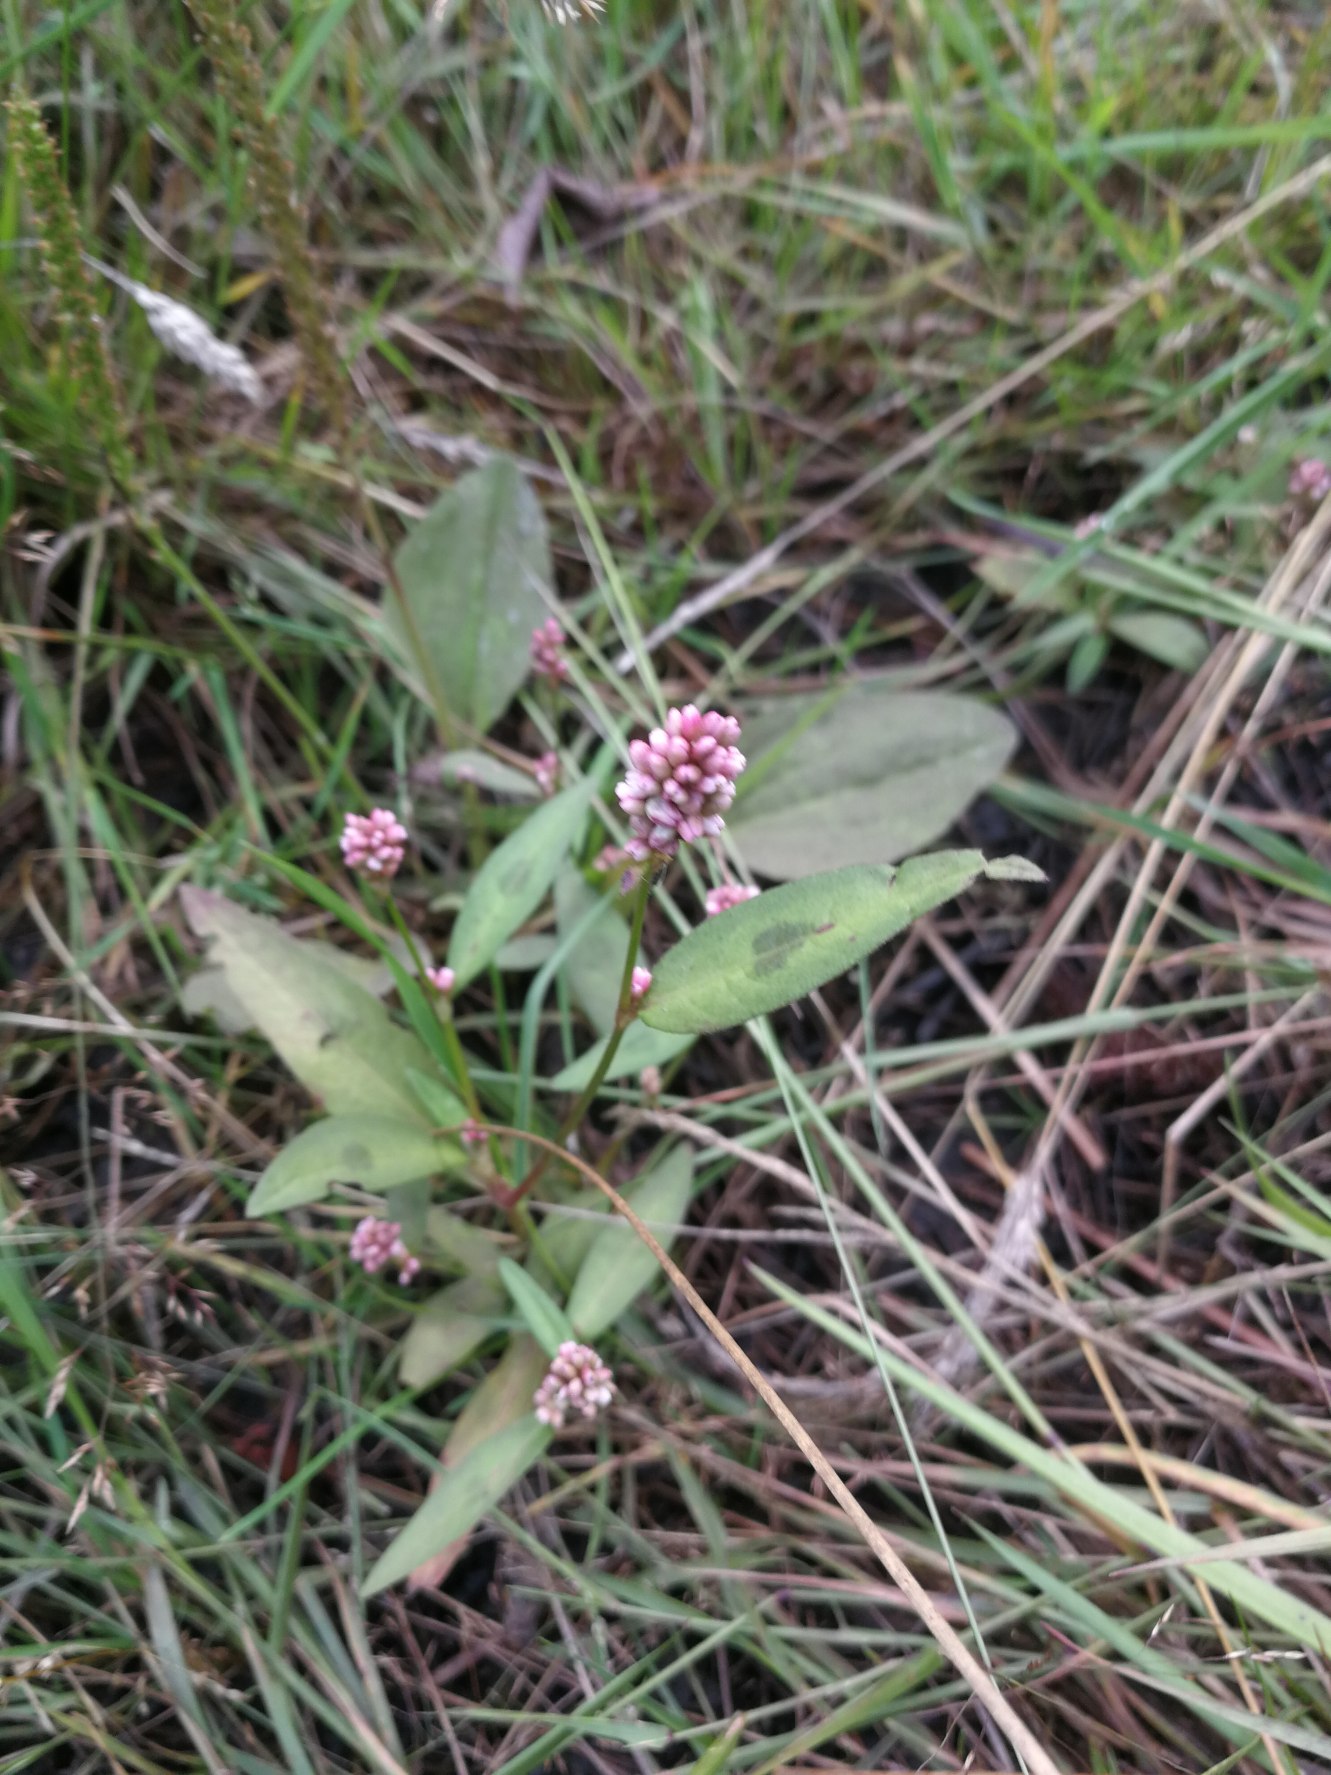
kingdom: Plantae
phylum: Tracheophyta
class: Magnoliopsida
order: Caryophyllales
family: Polygonaceae
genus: Persicaria
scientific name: Persicaria maculosa
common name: Fersken-pileurt
